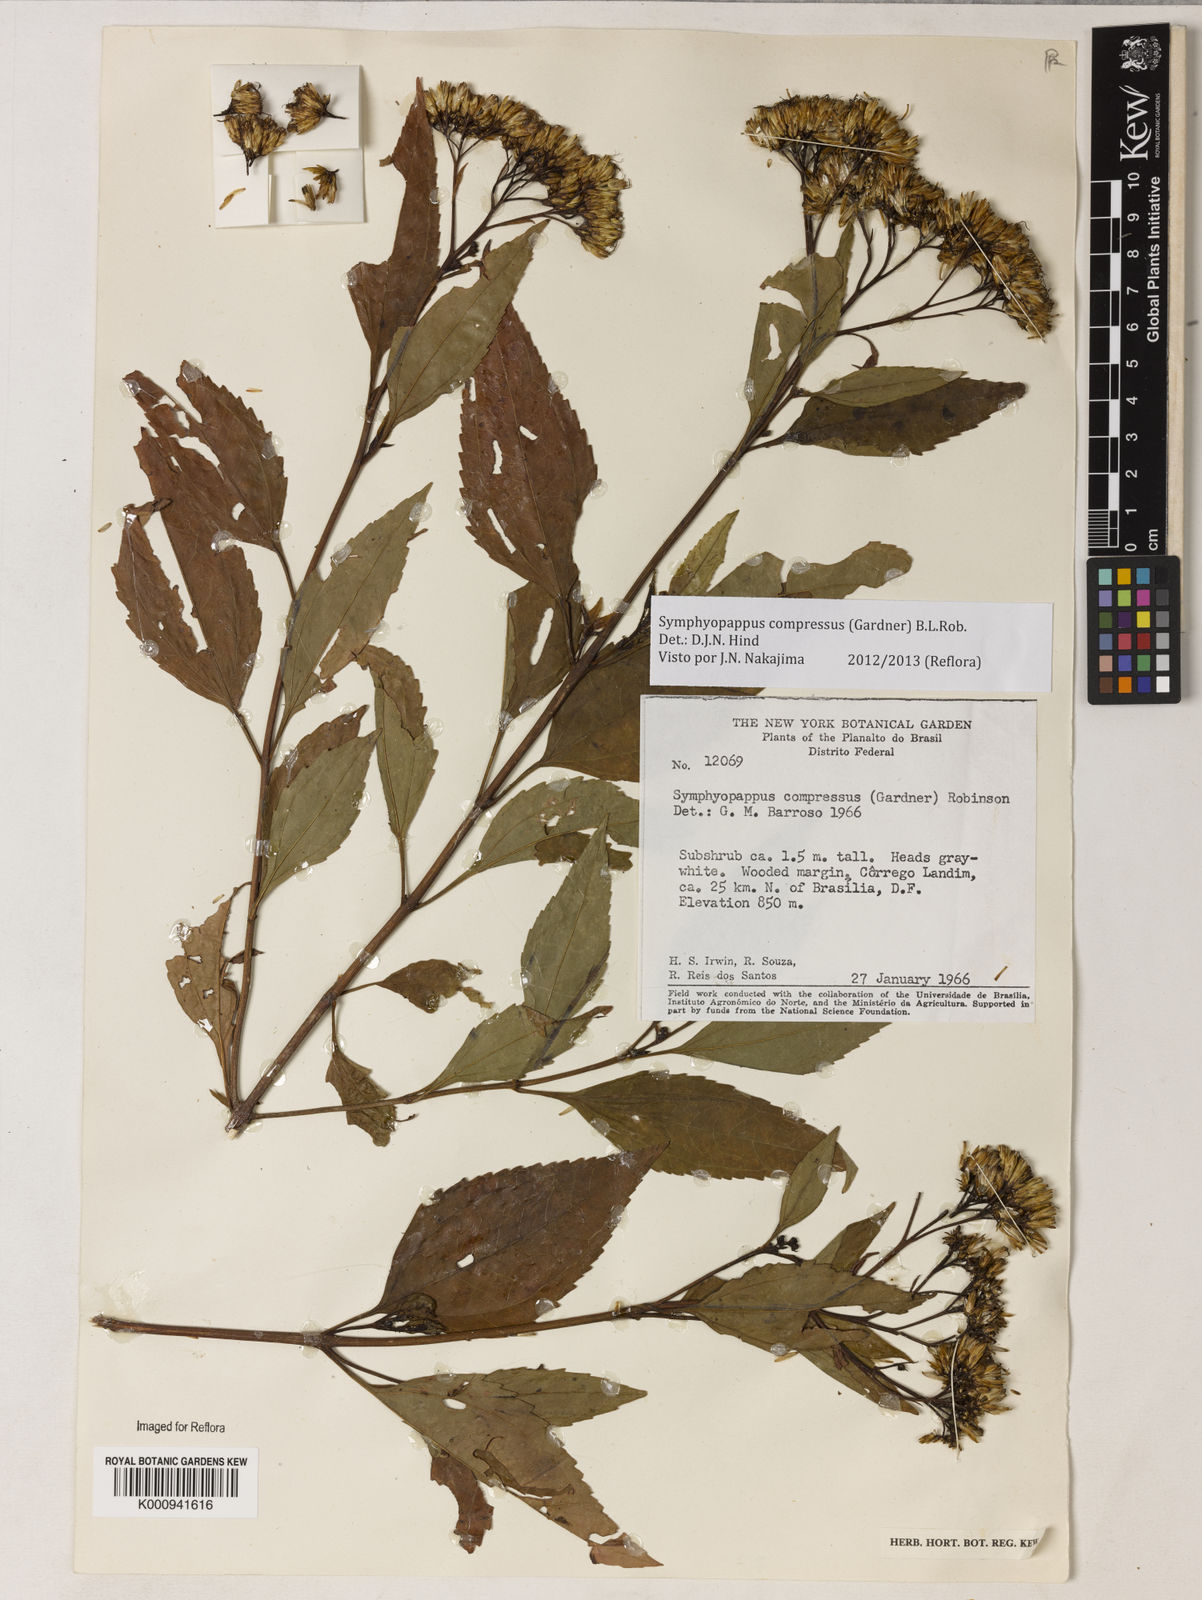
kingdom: Plantae
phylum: Tracheophyta
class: Magnoliopsida
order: Asterales
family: Asteraceae
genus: Symphyopappus
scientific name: Symphyopappus compressus
